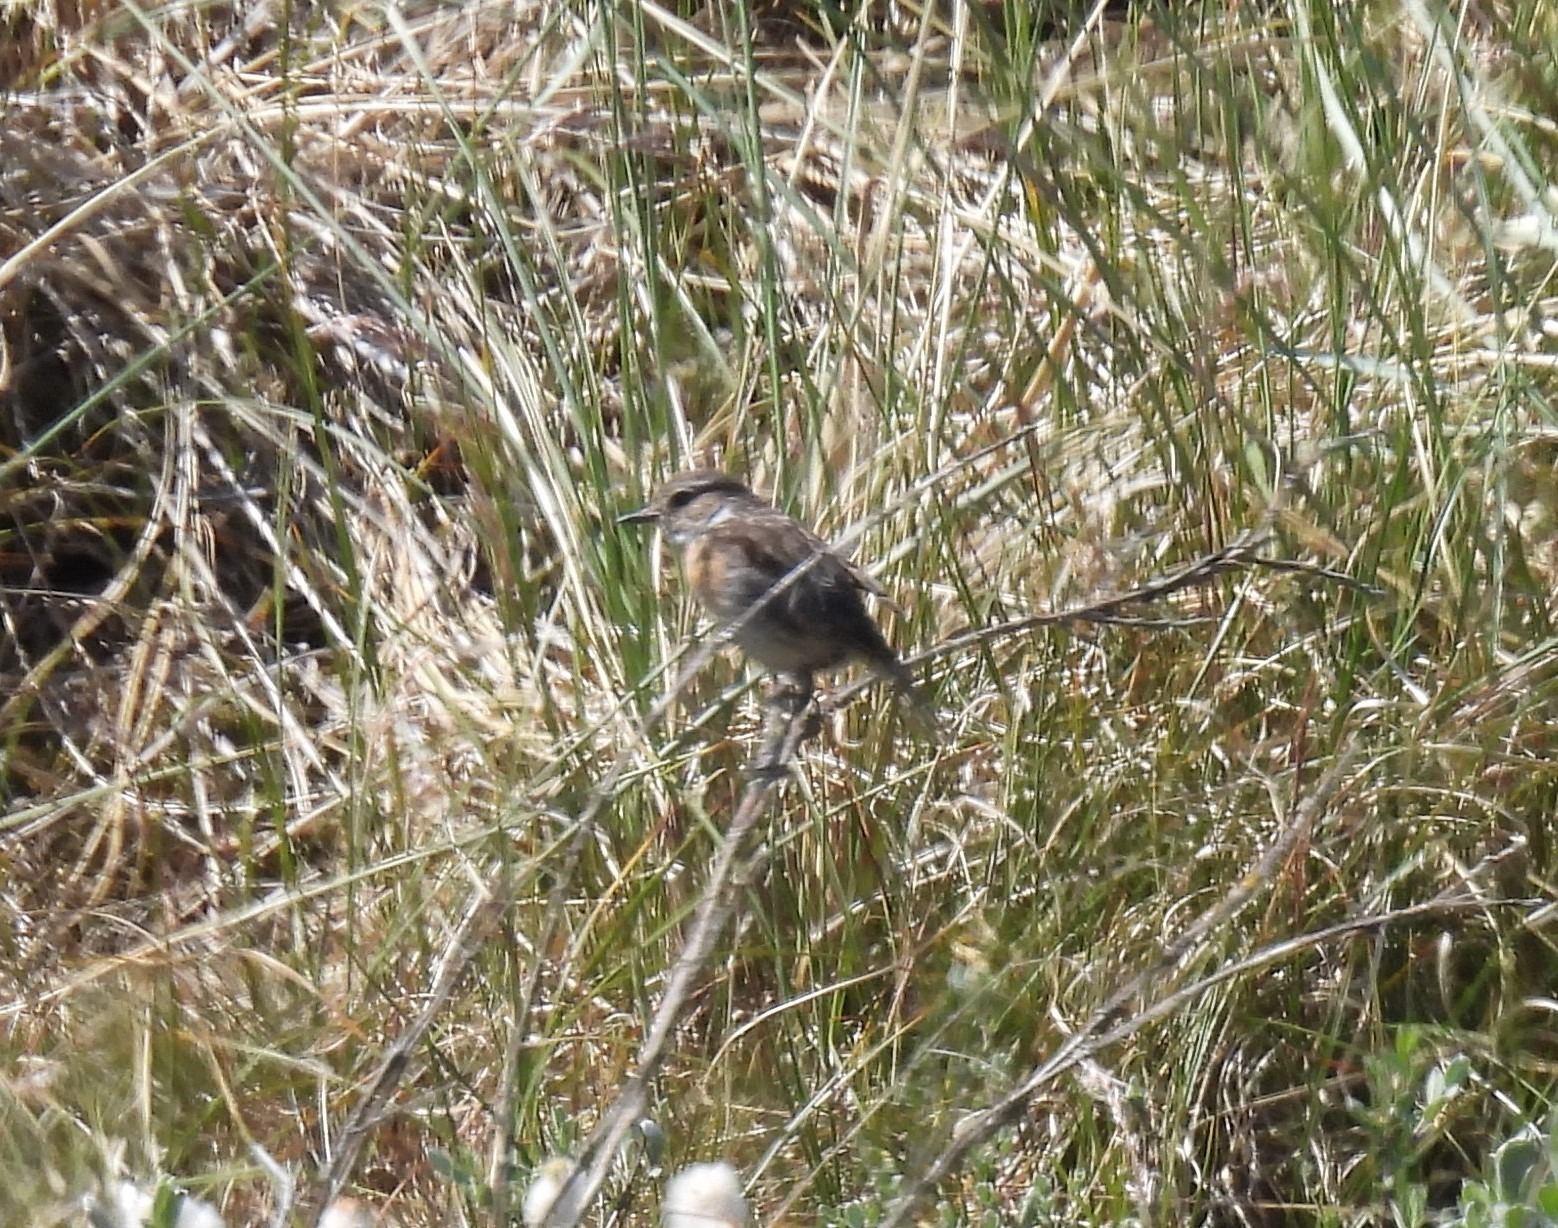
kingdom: Animalia
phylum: Chordata
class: Aves
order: Passeriformes
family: Muscicapidae
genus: Saxicola
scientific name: Saxicola rubicola
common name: Sortstrubet bynkefugl
